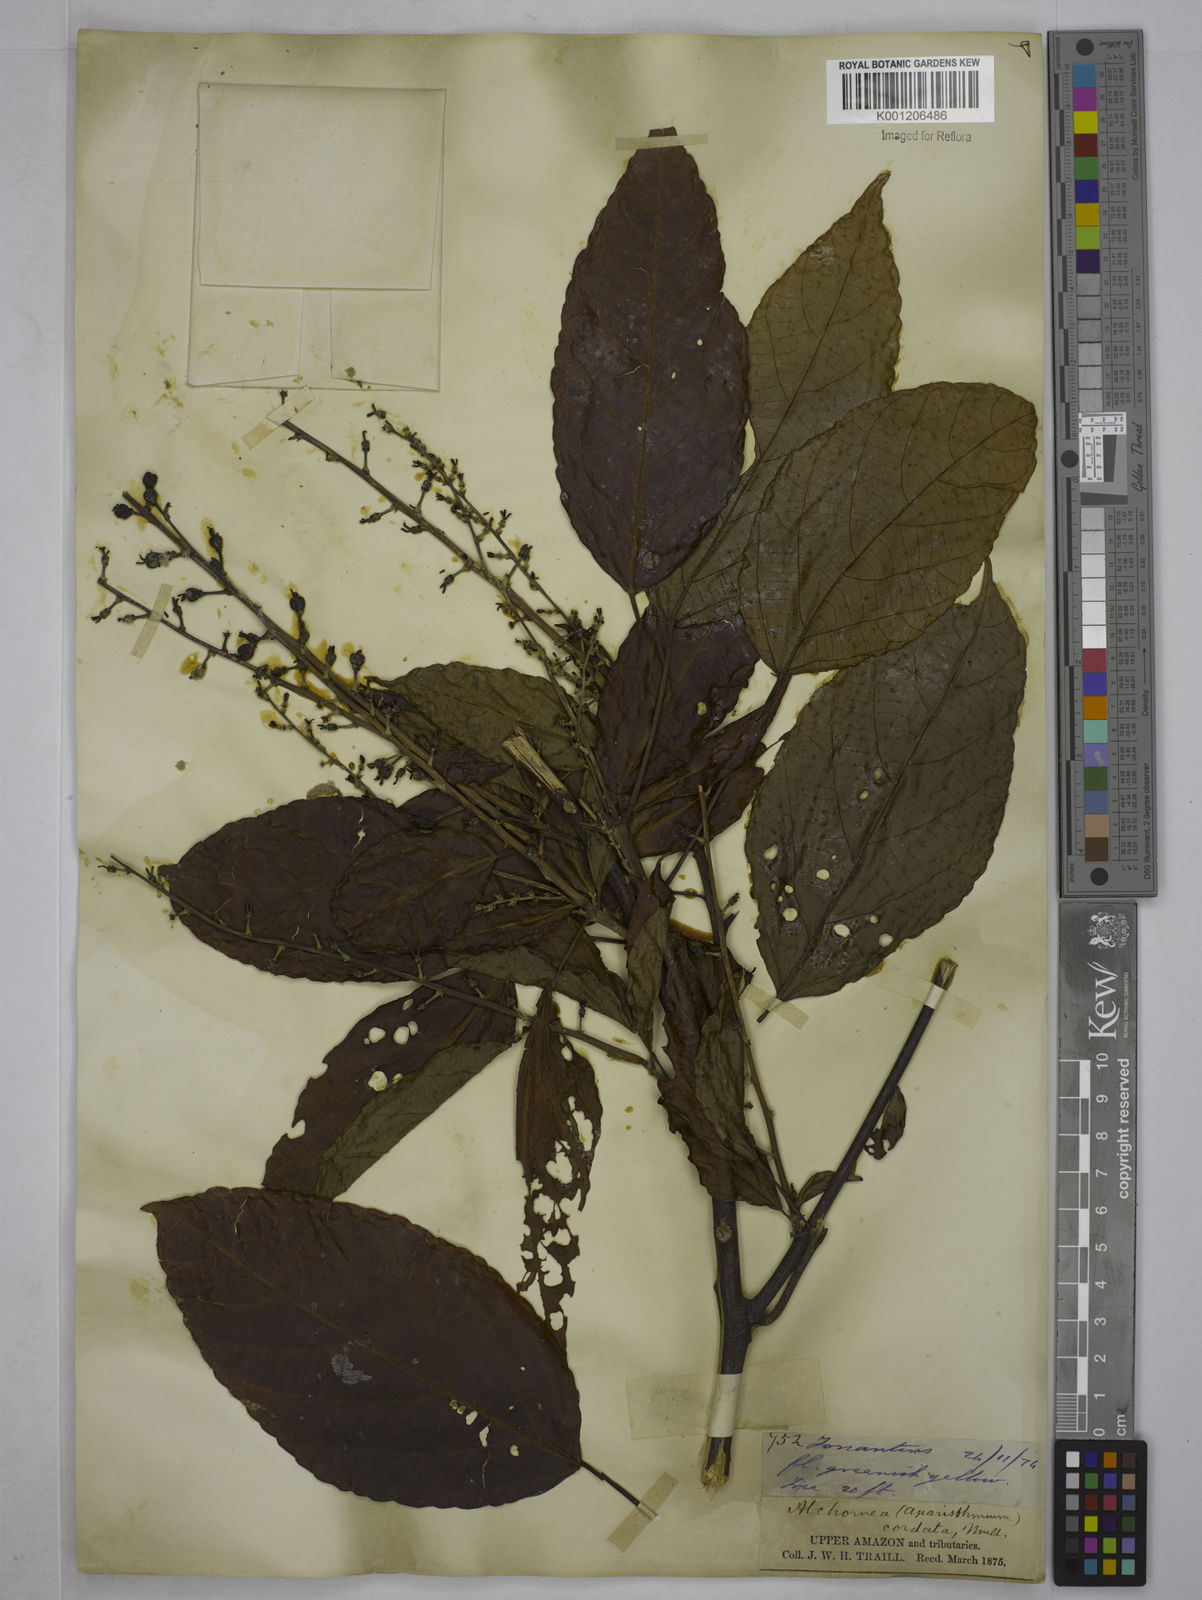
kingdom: Plantae
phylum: Tracheophyta
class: Magnoliopsida
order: Malpighiales
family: Euphorbiaceae
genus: Aparisthmium
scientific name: Aparisthmium cordatum
